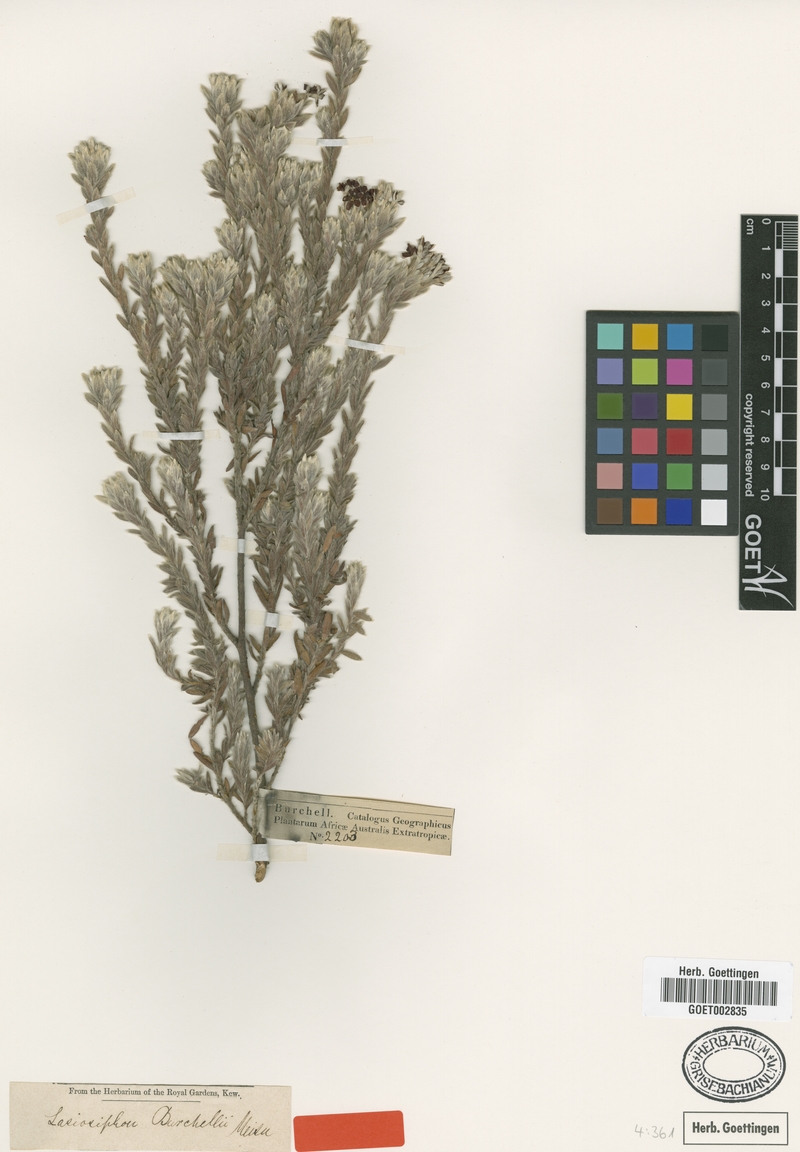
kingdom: Plantae
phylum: Tracheophyta
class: Magnoliopsida
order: Malvales
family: Thymelaeaceae
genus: Gnidia
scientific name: Gnidia burchellii
